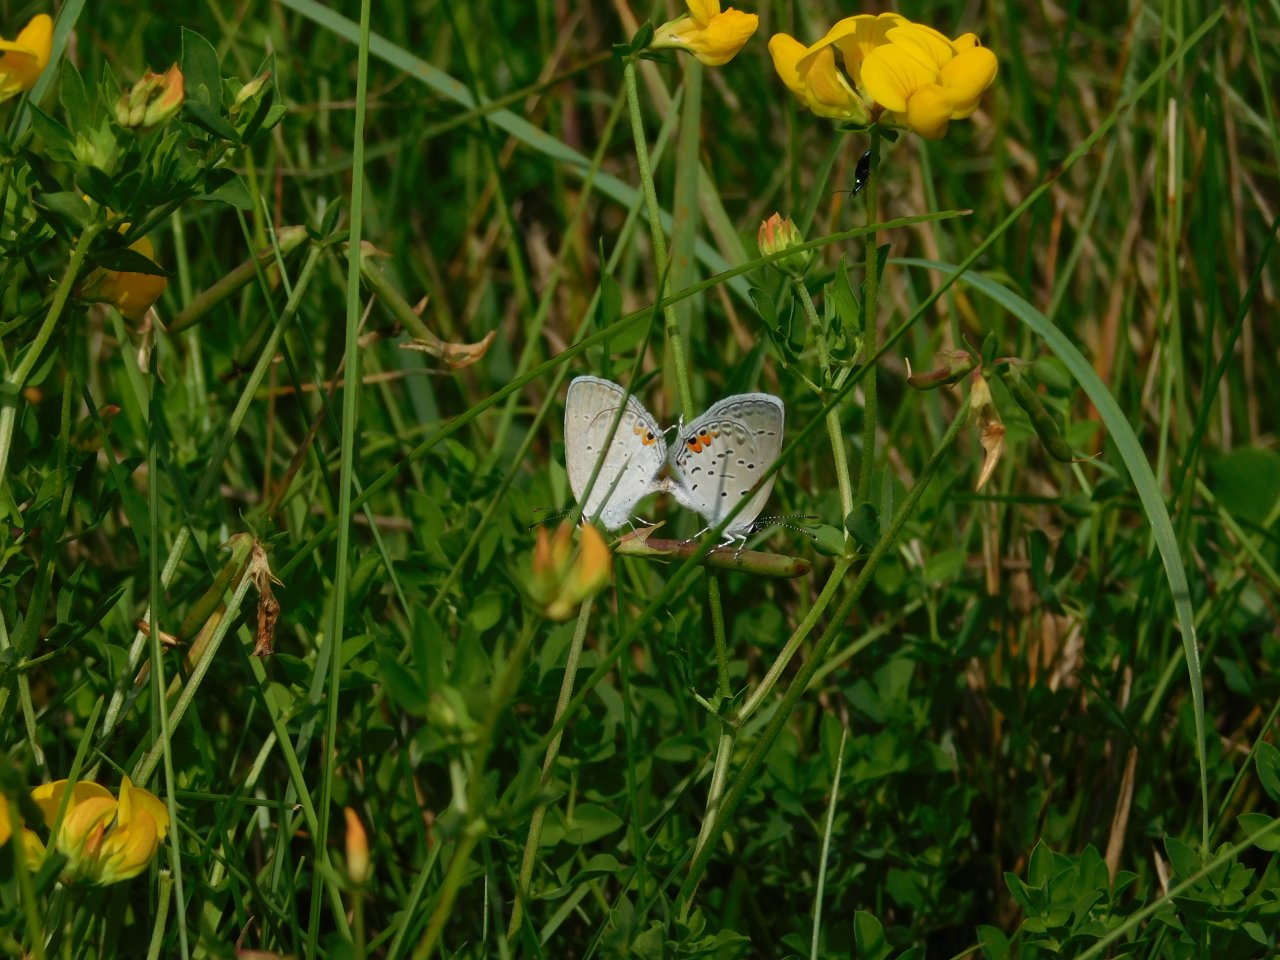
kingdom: Animalia
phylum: Arthropoda
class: Insecta
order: Lepidoptera
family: Lycaenidae
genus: Elkalyce
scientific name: Elkalyce comyntas
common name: Eastern Tailed-Blue
